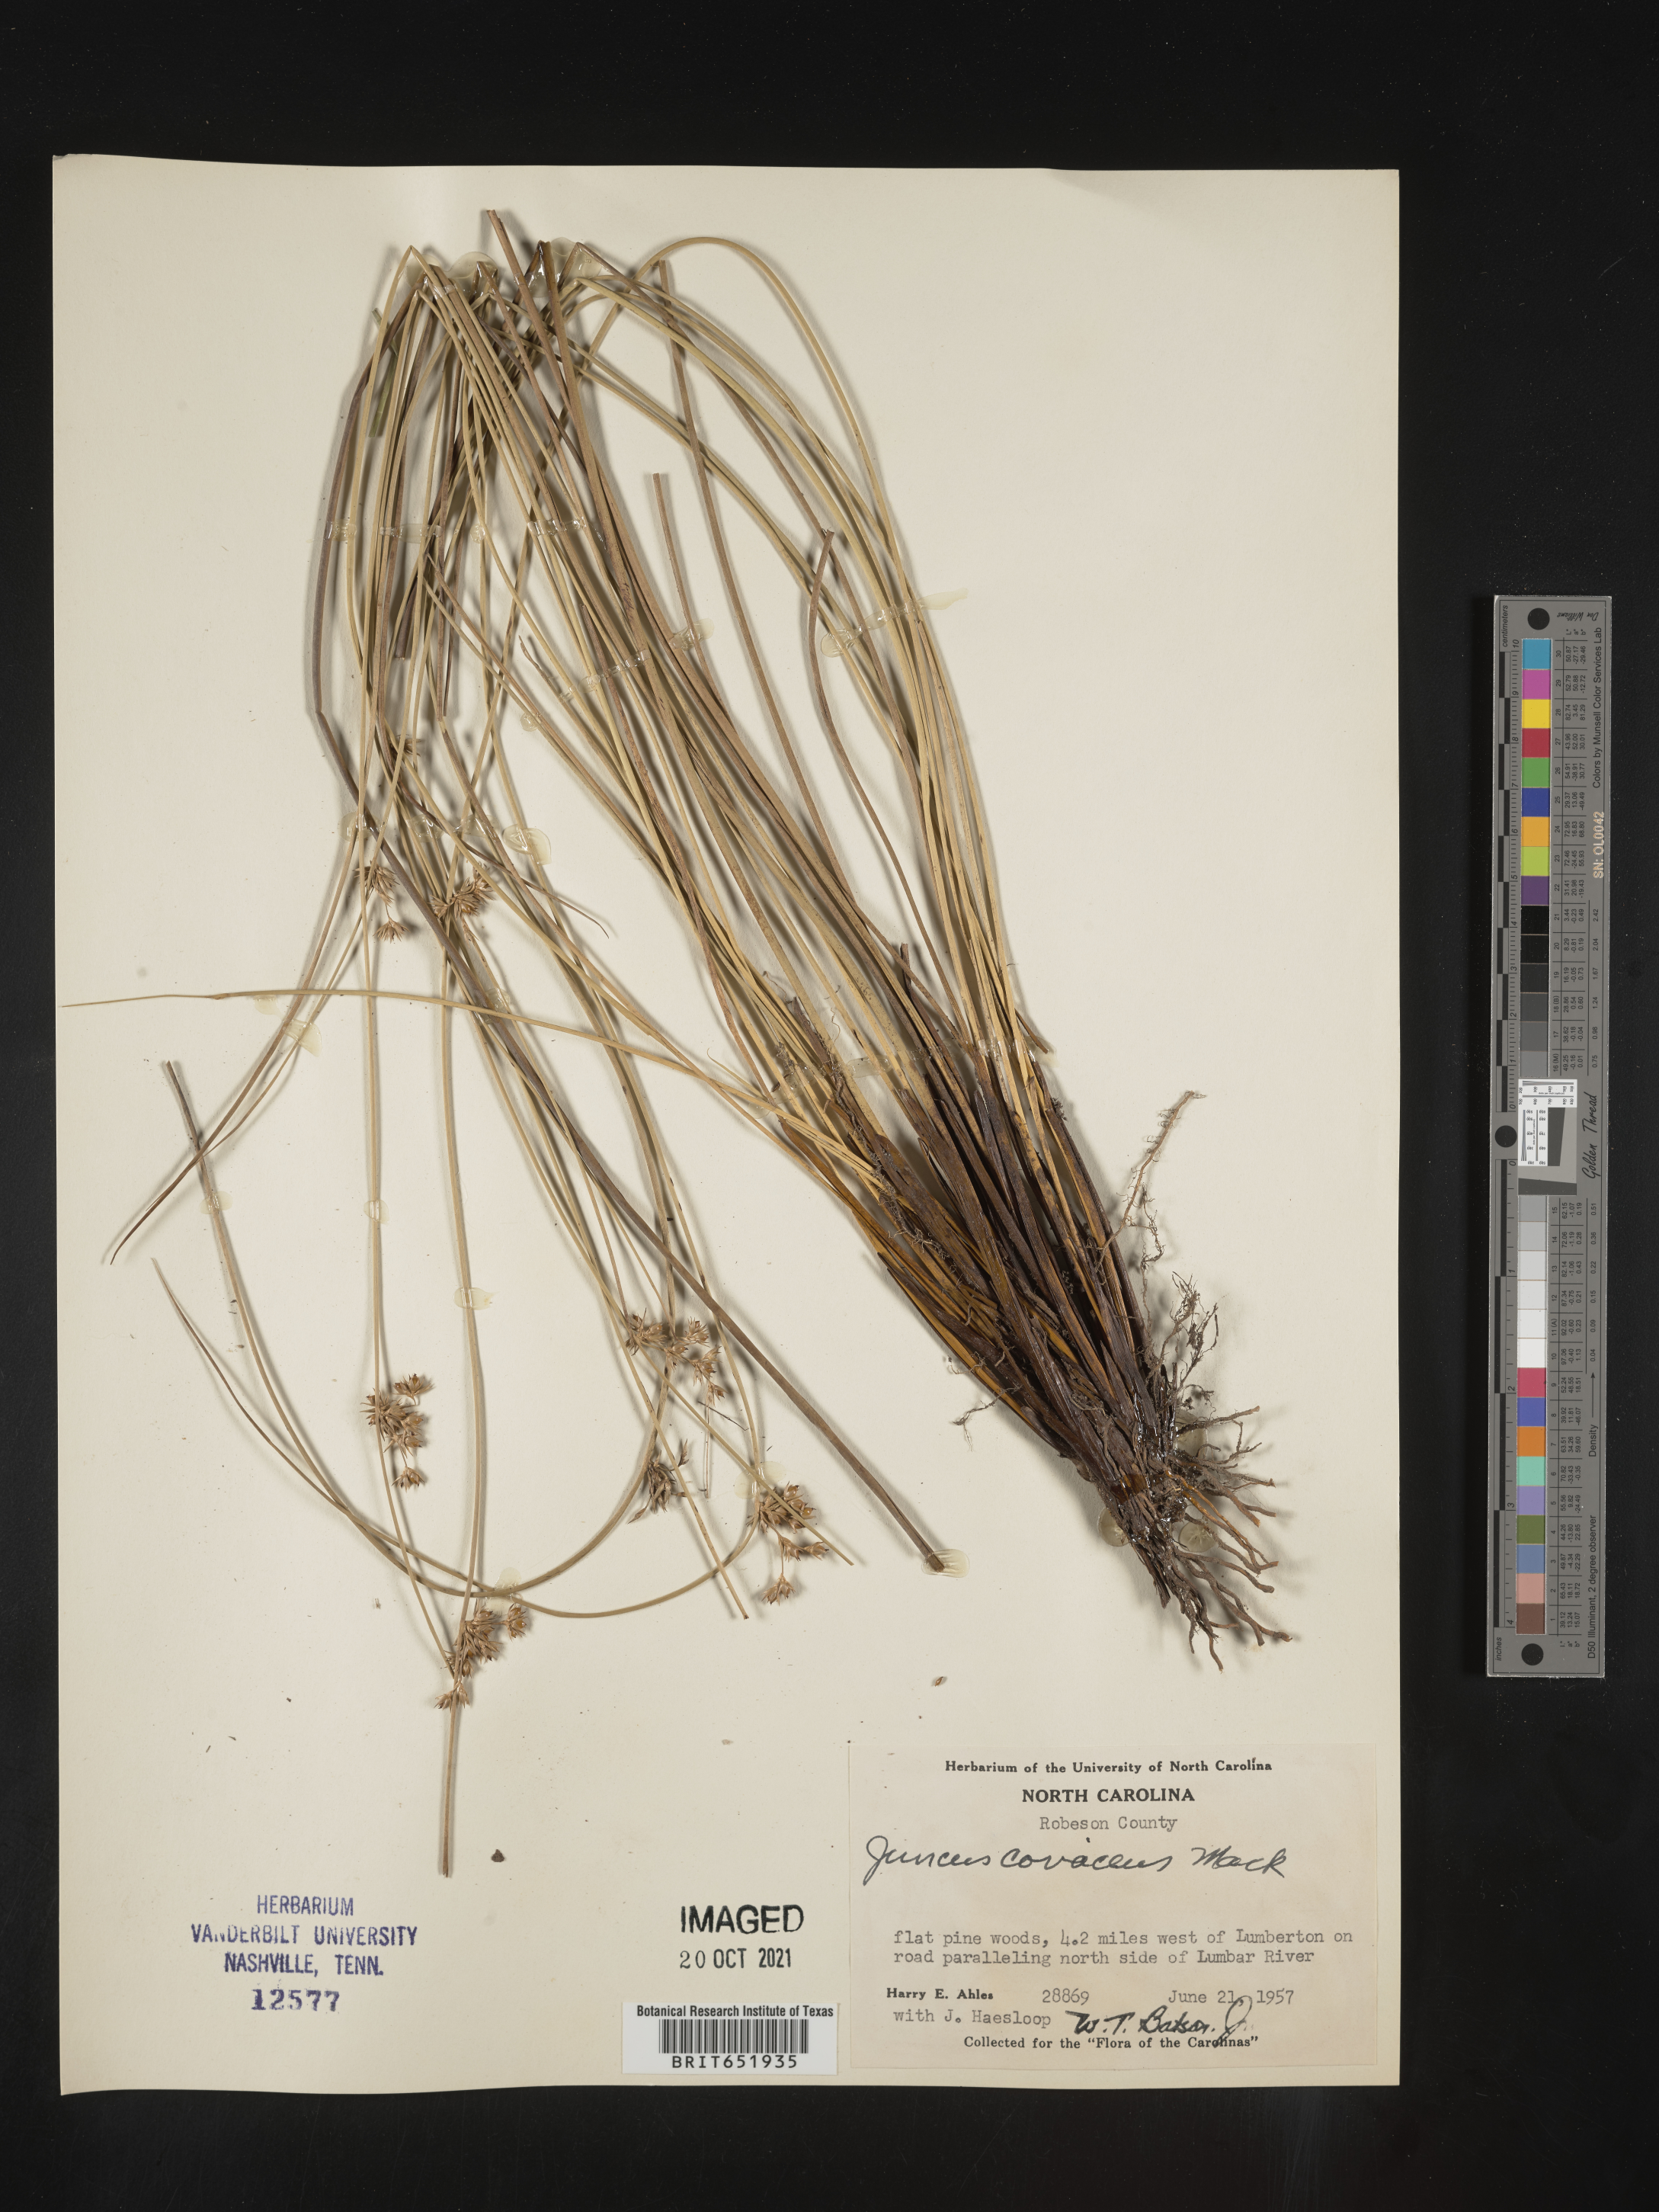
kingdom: Plantae
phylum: Tracheophyta
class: Liliopsida
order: Poales
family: Juncaceae
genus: Juncus
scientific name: Juncus coriaceus
